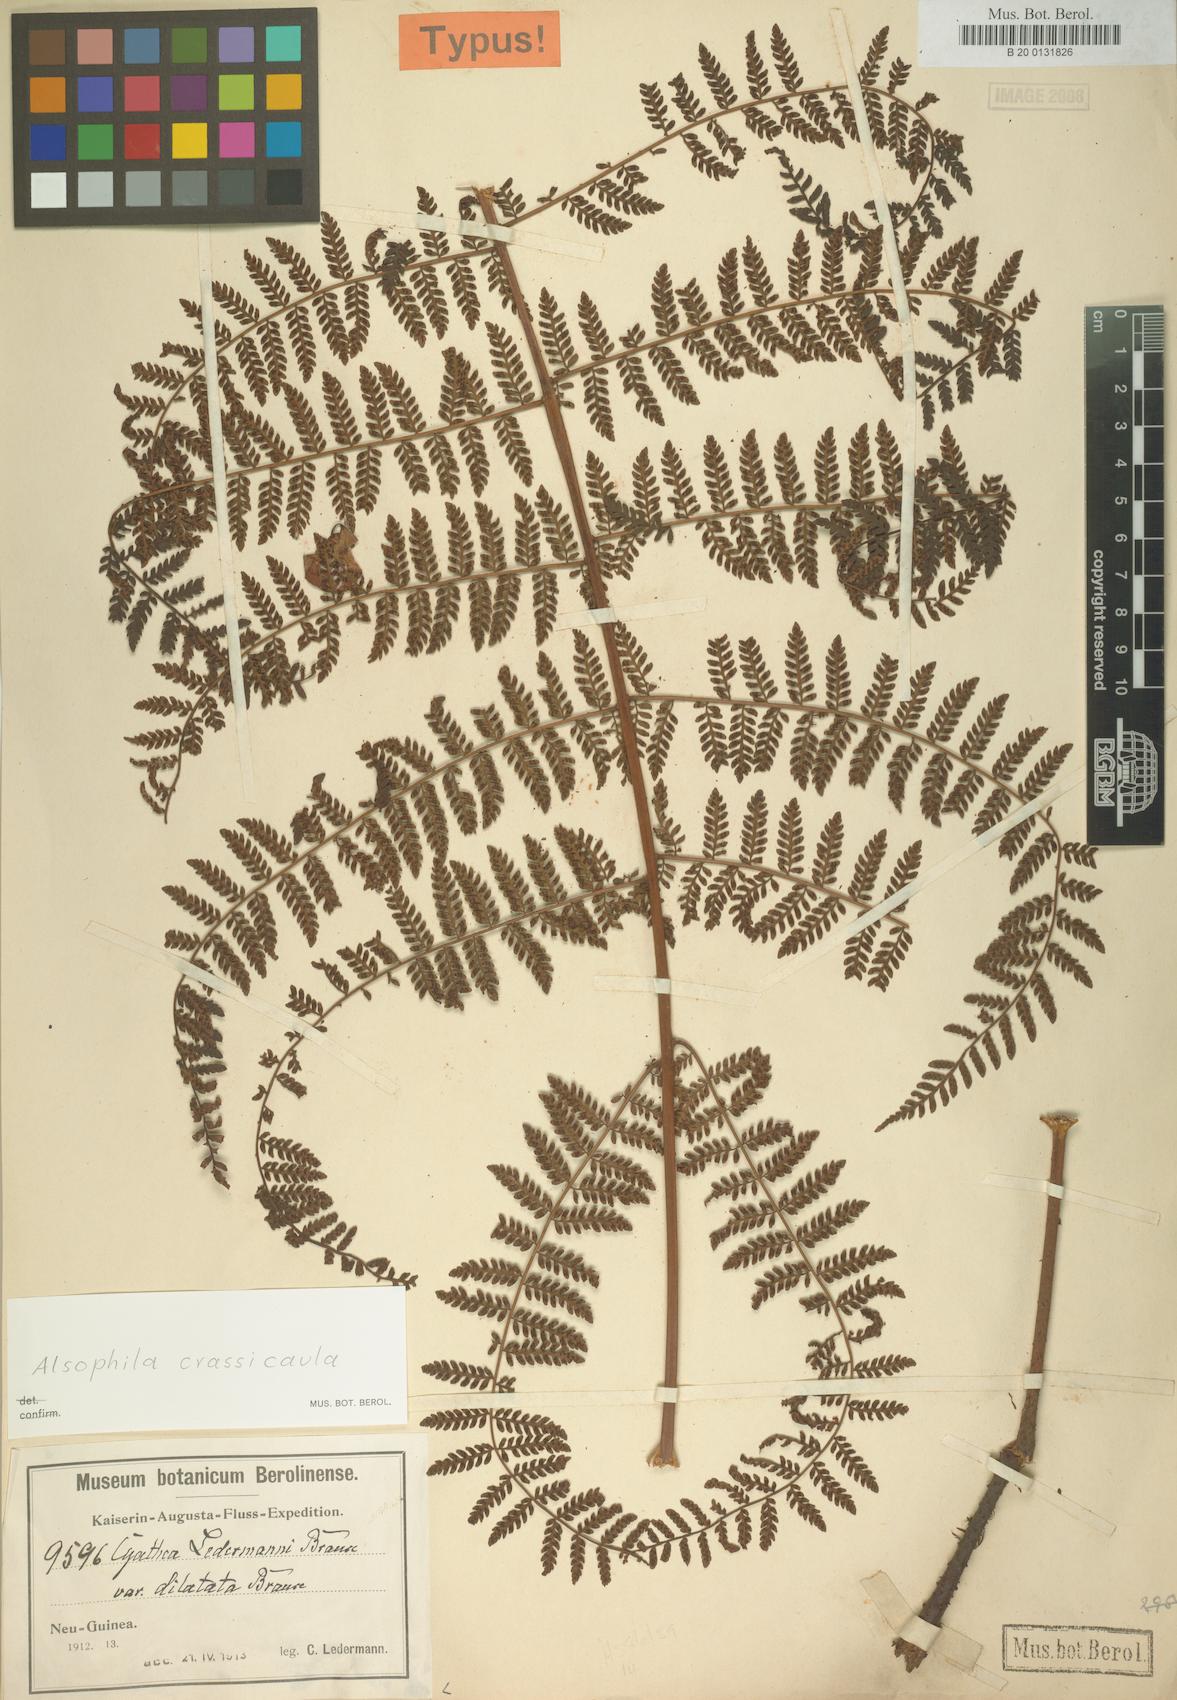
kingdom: Plantae
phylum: Tracheophyta
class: Polypodiopsida
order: Cyatheales
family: Cyatheaceae
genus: Sphaeropteris
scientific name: Sphaeropteris ledermannii
